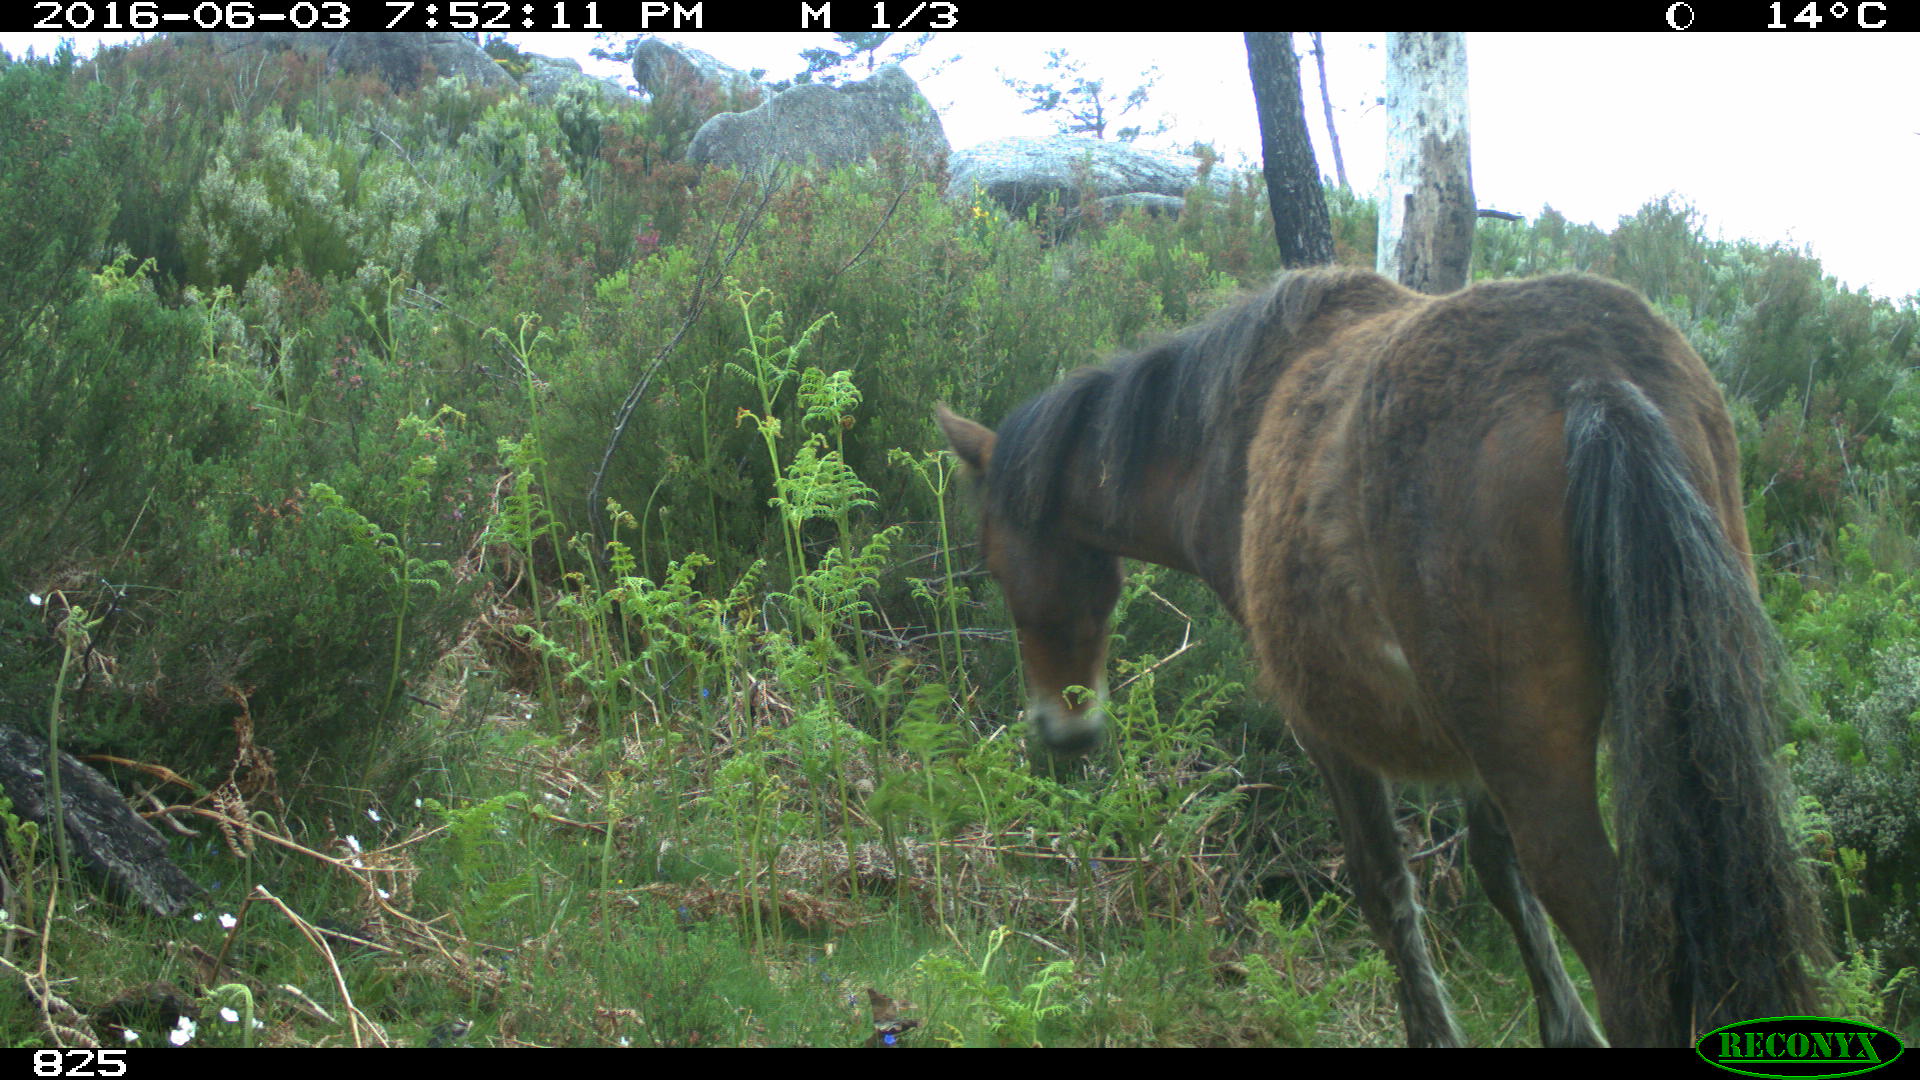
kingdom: Animalia
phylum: Chordata
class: Mammalia
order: Perissodactyla
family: Equidae
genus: Equus
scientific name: Equus caballus
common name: Horse
